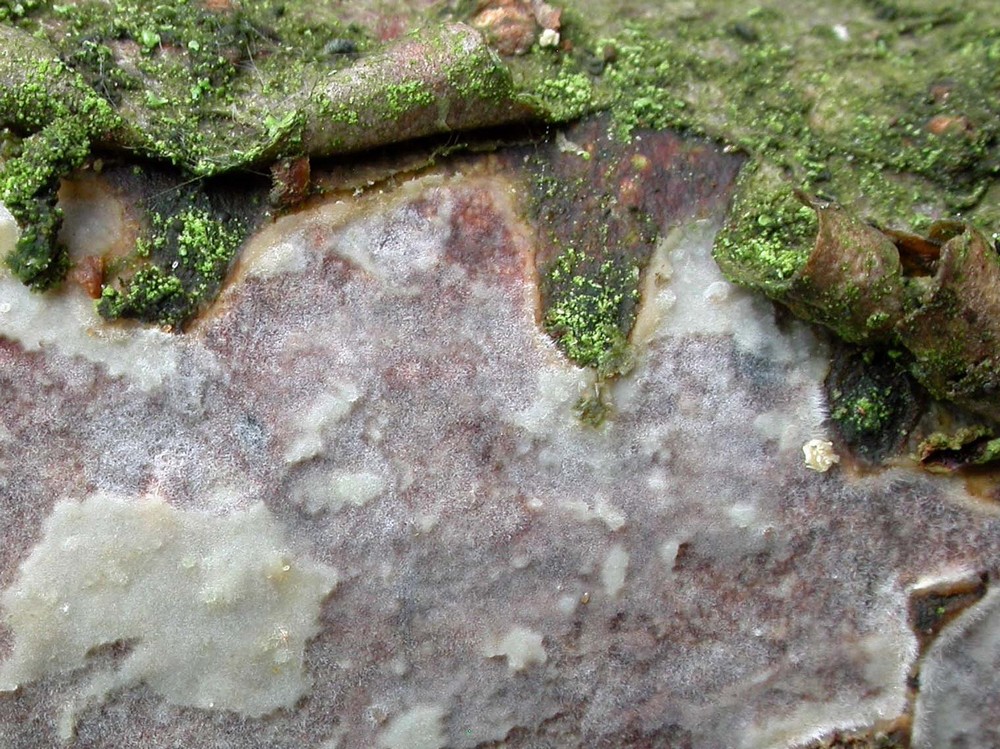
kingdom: Fungi
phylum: Basidiomycota
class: Agaricomycetes
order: Corticiales
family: Vuilleminiaceae
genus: Vuilleminia
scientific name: Vuilleminia comedens
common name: almindelig barksprænger
